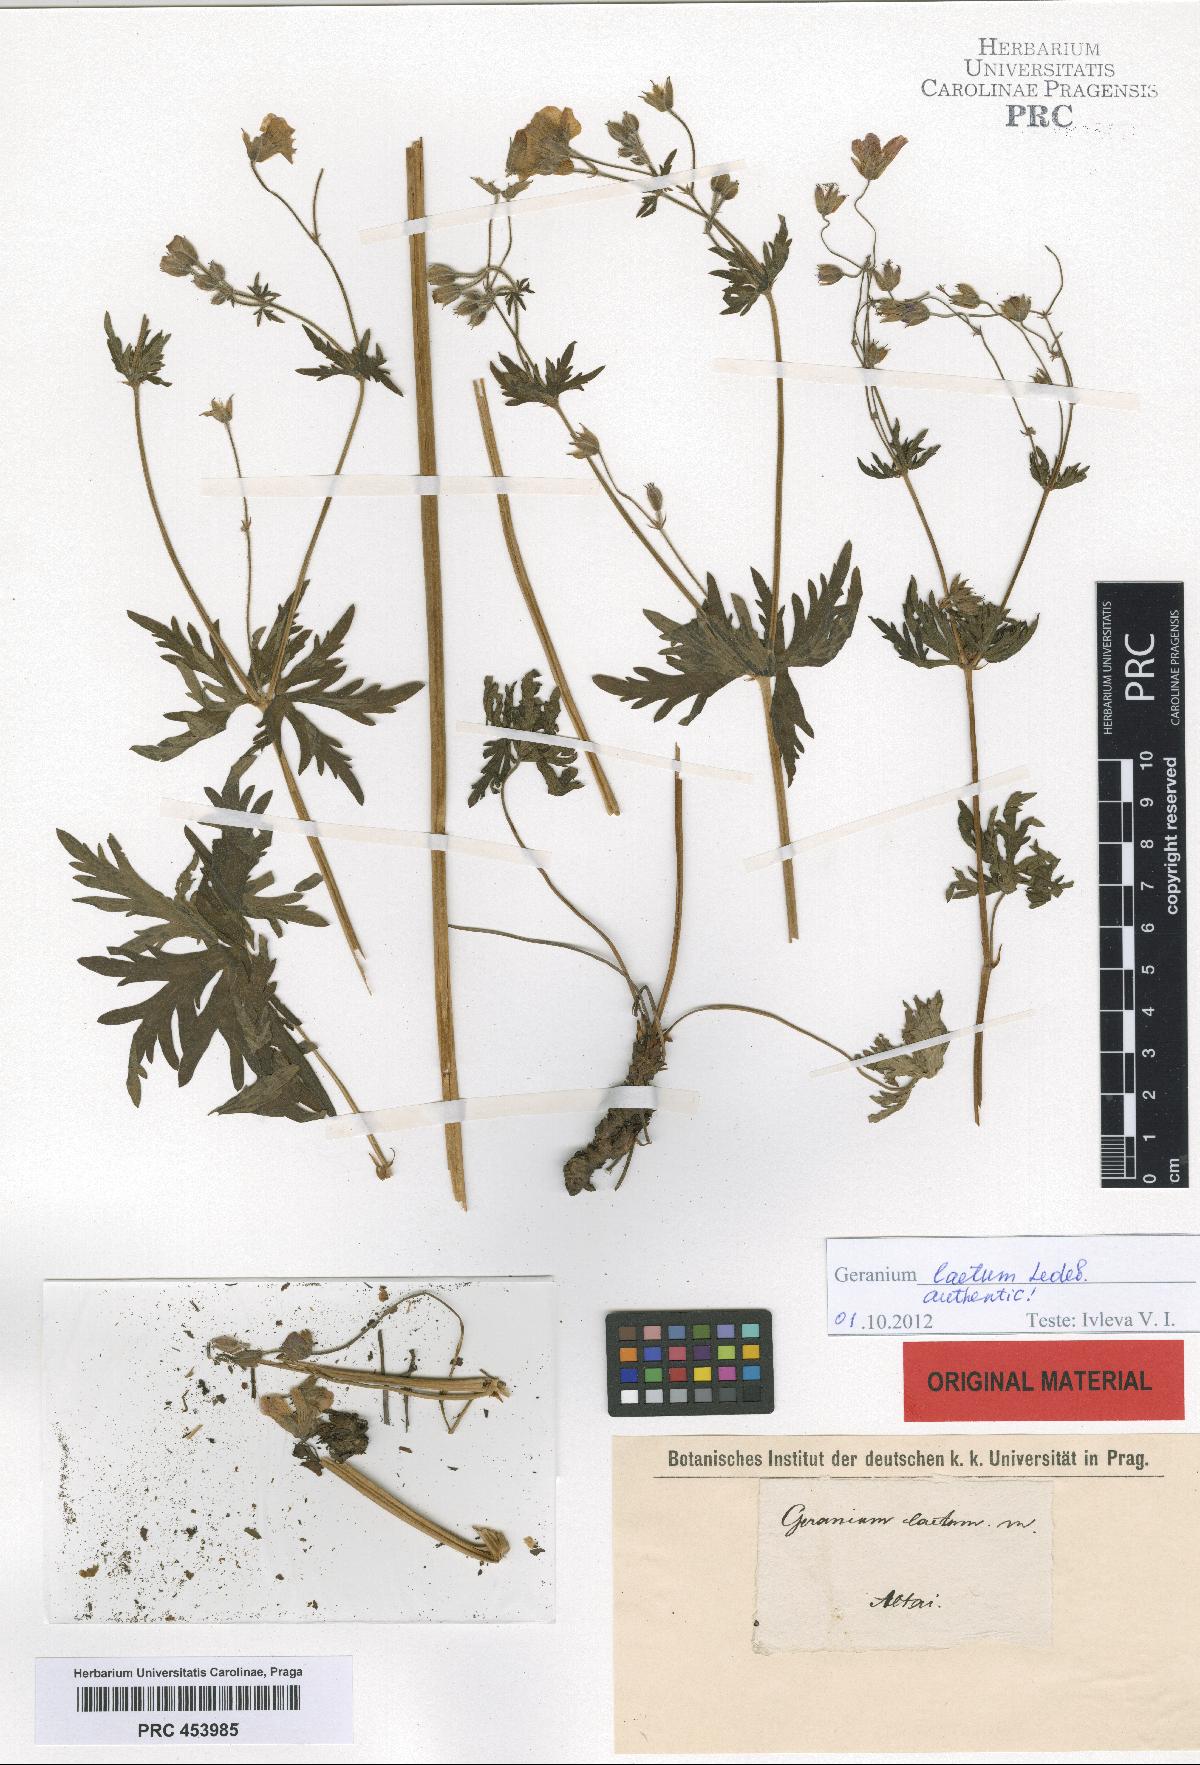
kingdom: Plantae
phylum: Tracheophyta
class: Magnoliopsida
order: Geraniales
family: Geraniaceae
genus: Geranium
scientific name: Geranium pseudosibiricum
